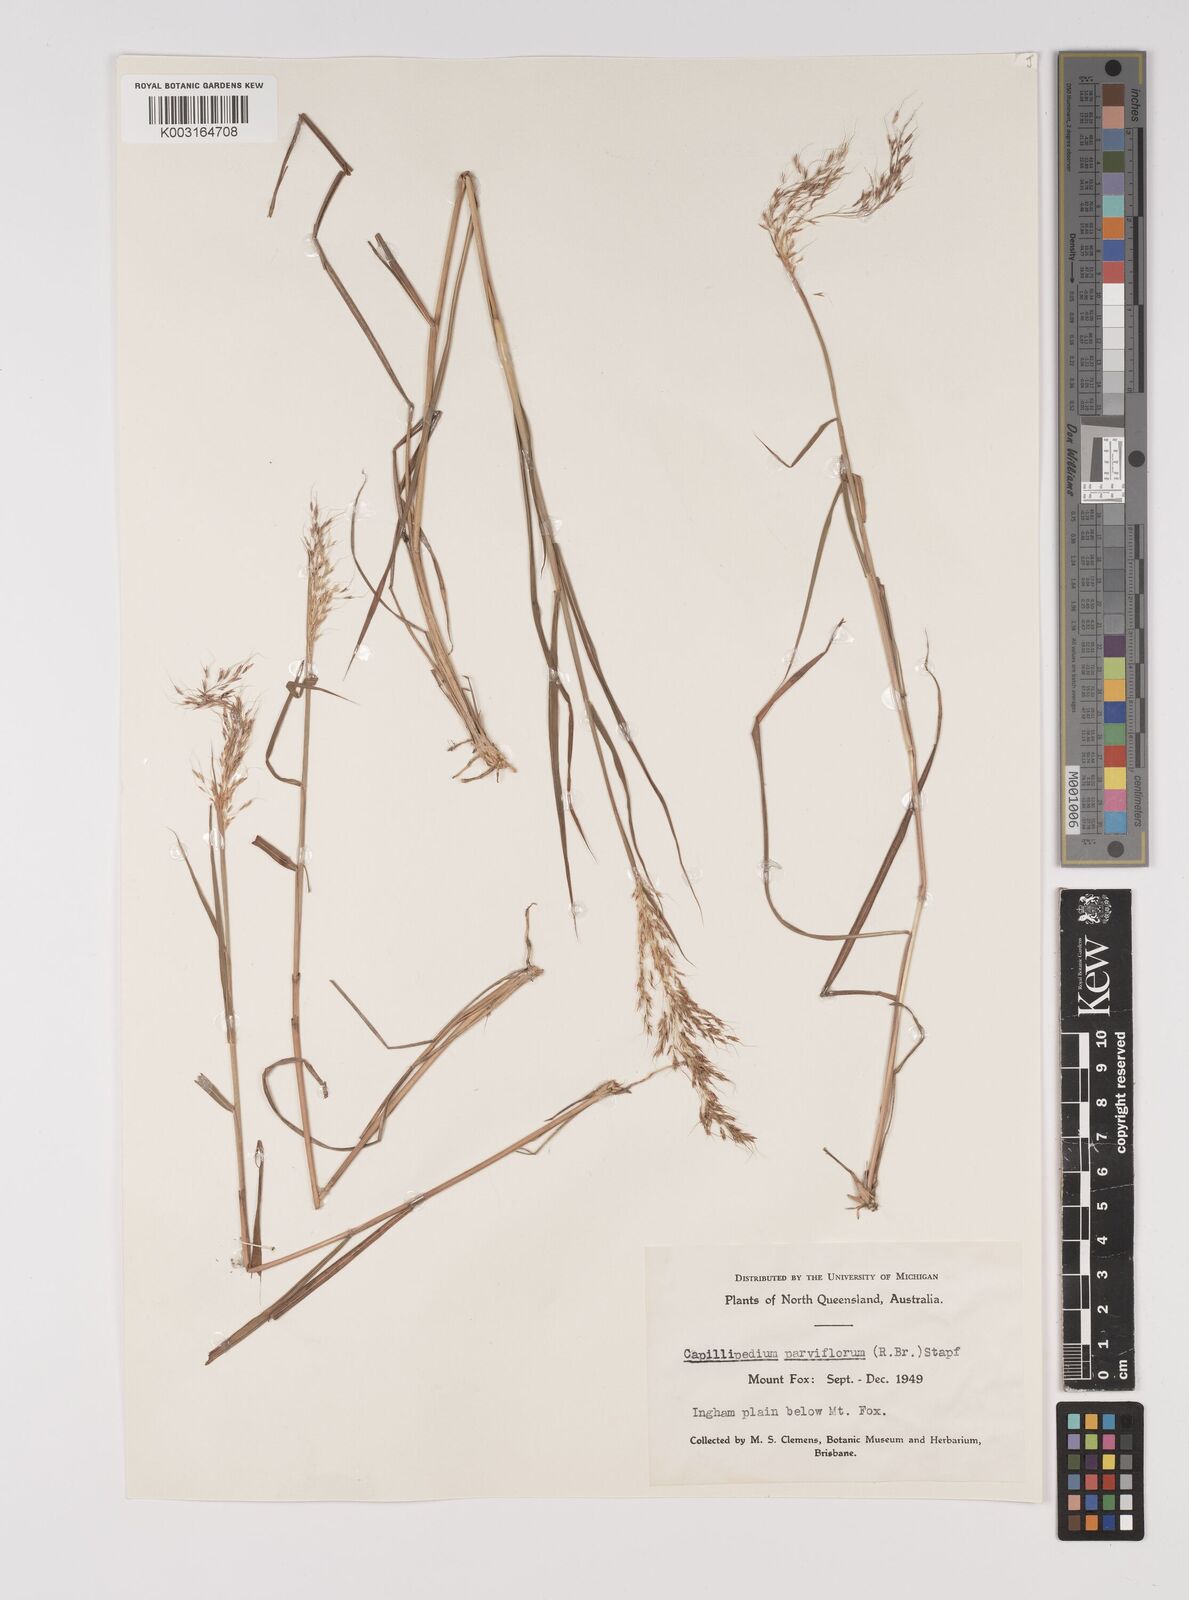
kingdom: Plantae
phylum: Tracheophyta
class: Liliopsida
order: Poales
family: Poaceae
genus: Capillipedium
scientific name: Capillipedium parviflorum
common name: Golden-beard
